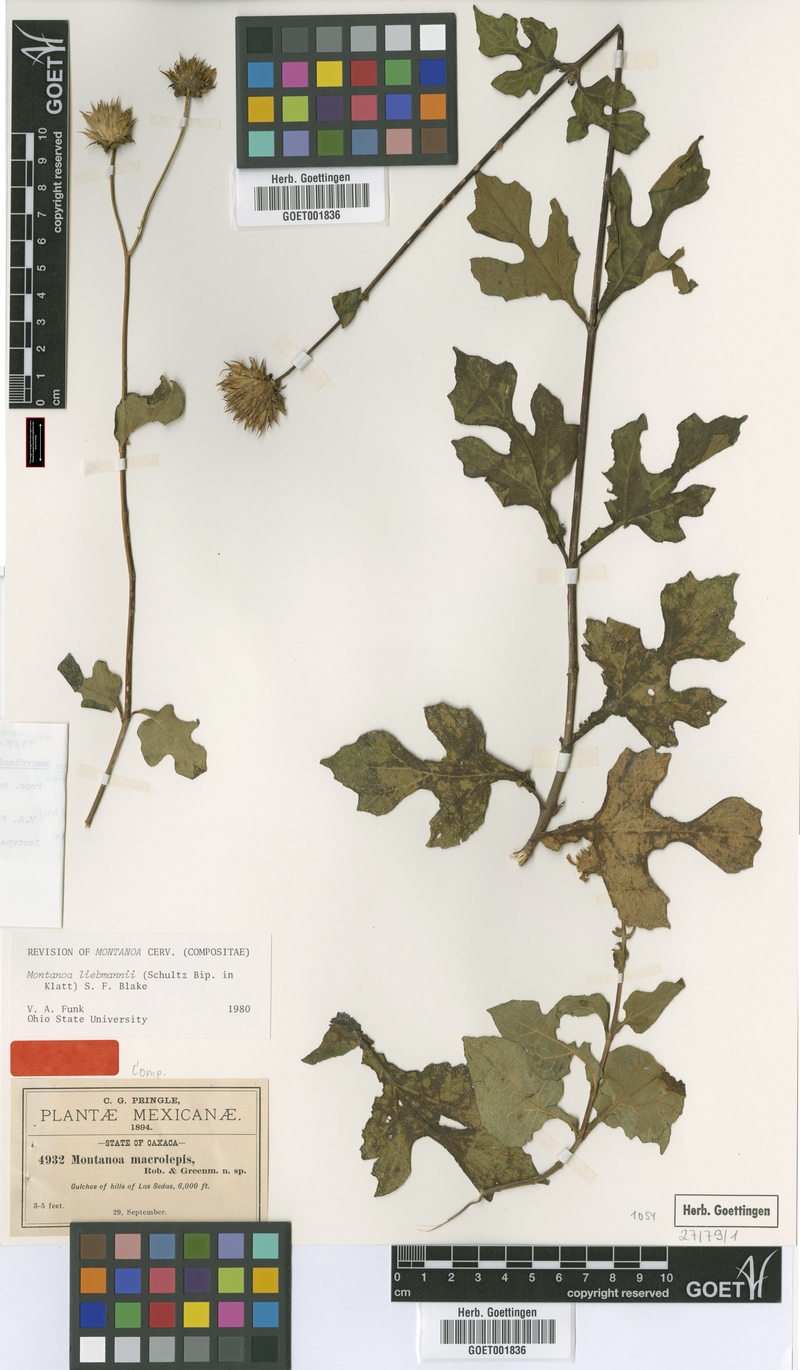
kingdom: Plantae
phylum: Tracheophyta
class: Magnoliopsida
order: Asterales
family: Asteraceae
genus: Montanoa
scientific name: Montanoa liebmannii
